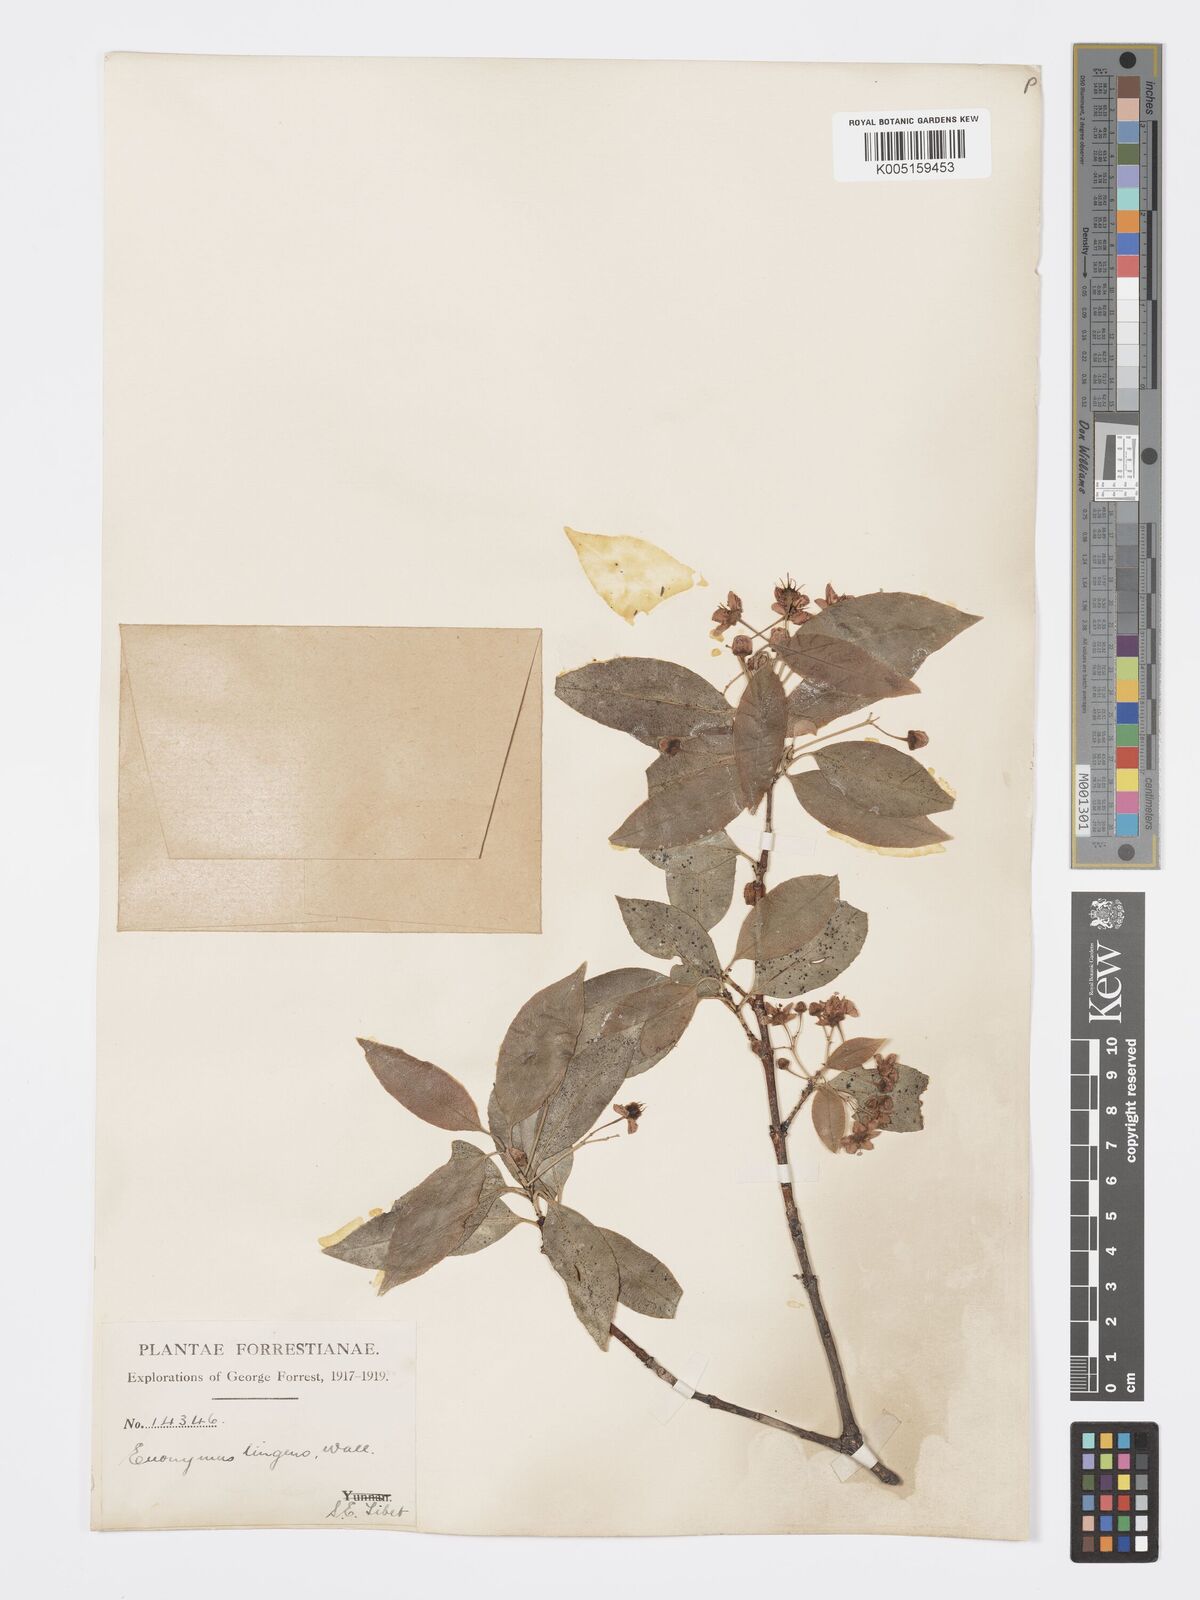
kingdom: Plantae
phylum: Tracheophyta
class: Magnoliopsida
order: Celastrales
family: Celastraceae
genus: Euonymus
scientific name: Euonymus tingens
